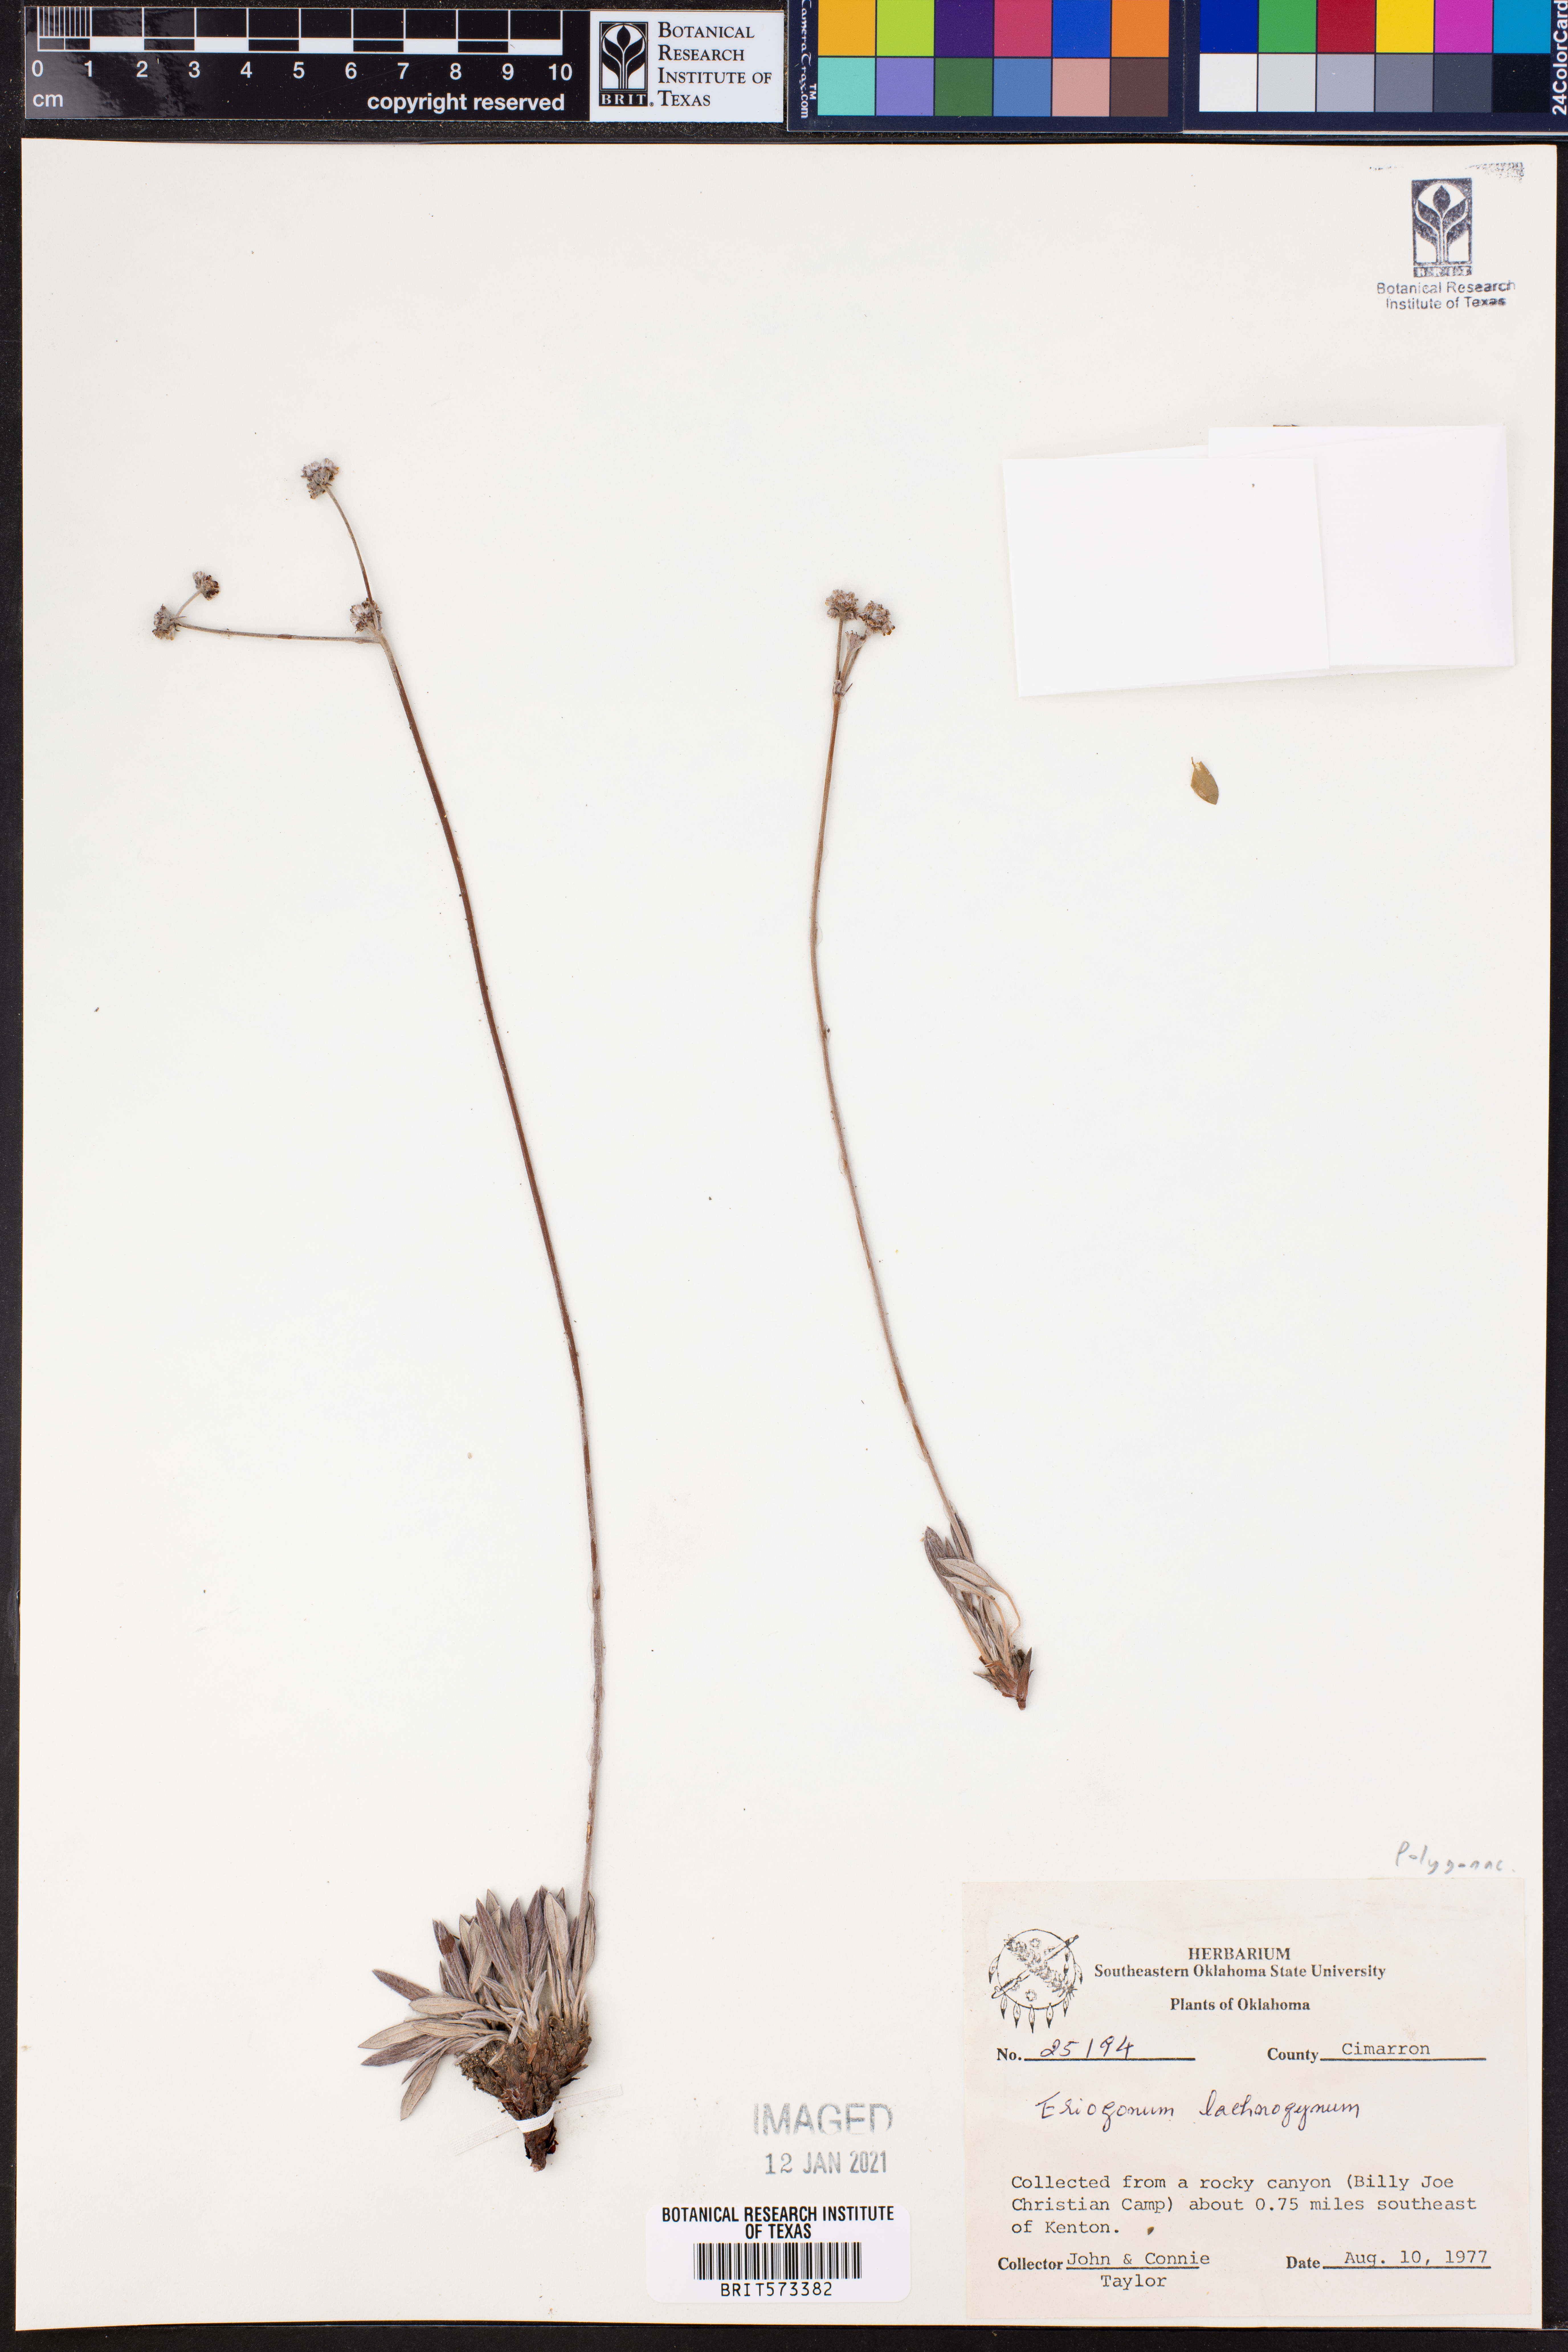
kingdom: Plantae
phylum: Tracheophyta
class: Magnoliopsida
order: Caryophyllales
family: Polygonaceae
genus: Eriogonum
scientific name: Eriogonum lachnogynum
